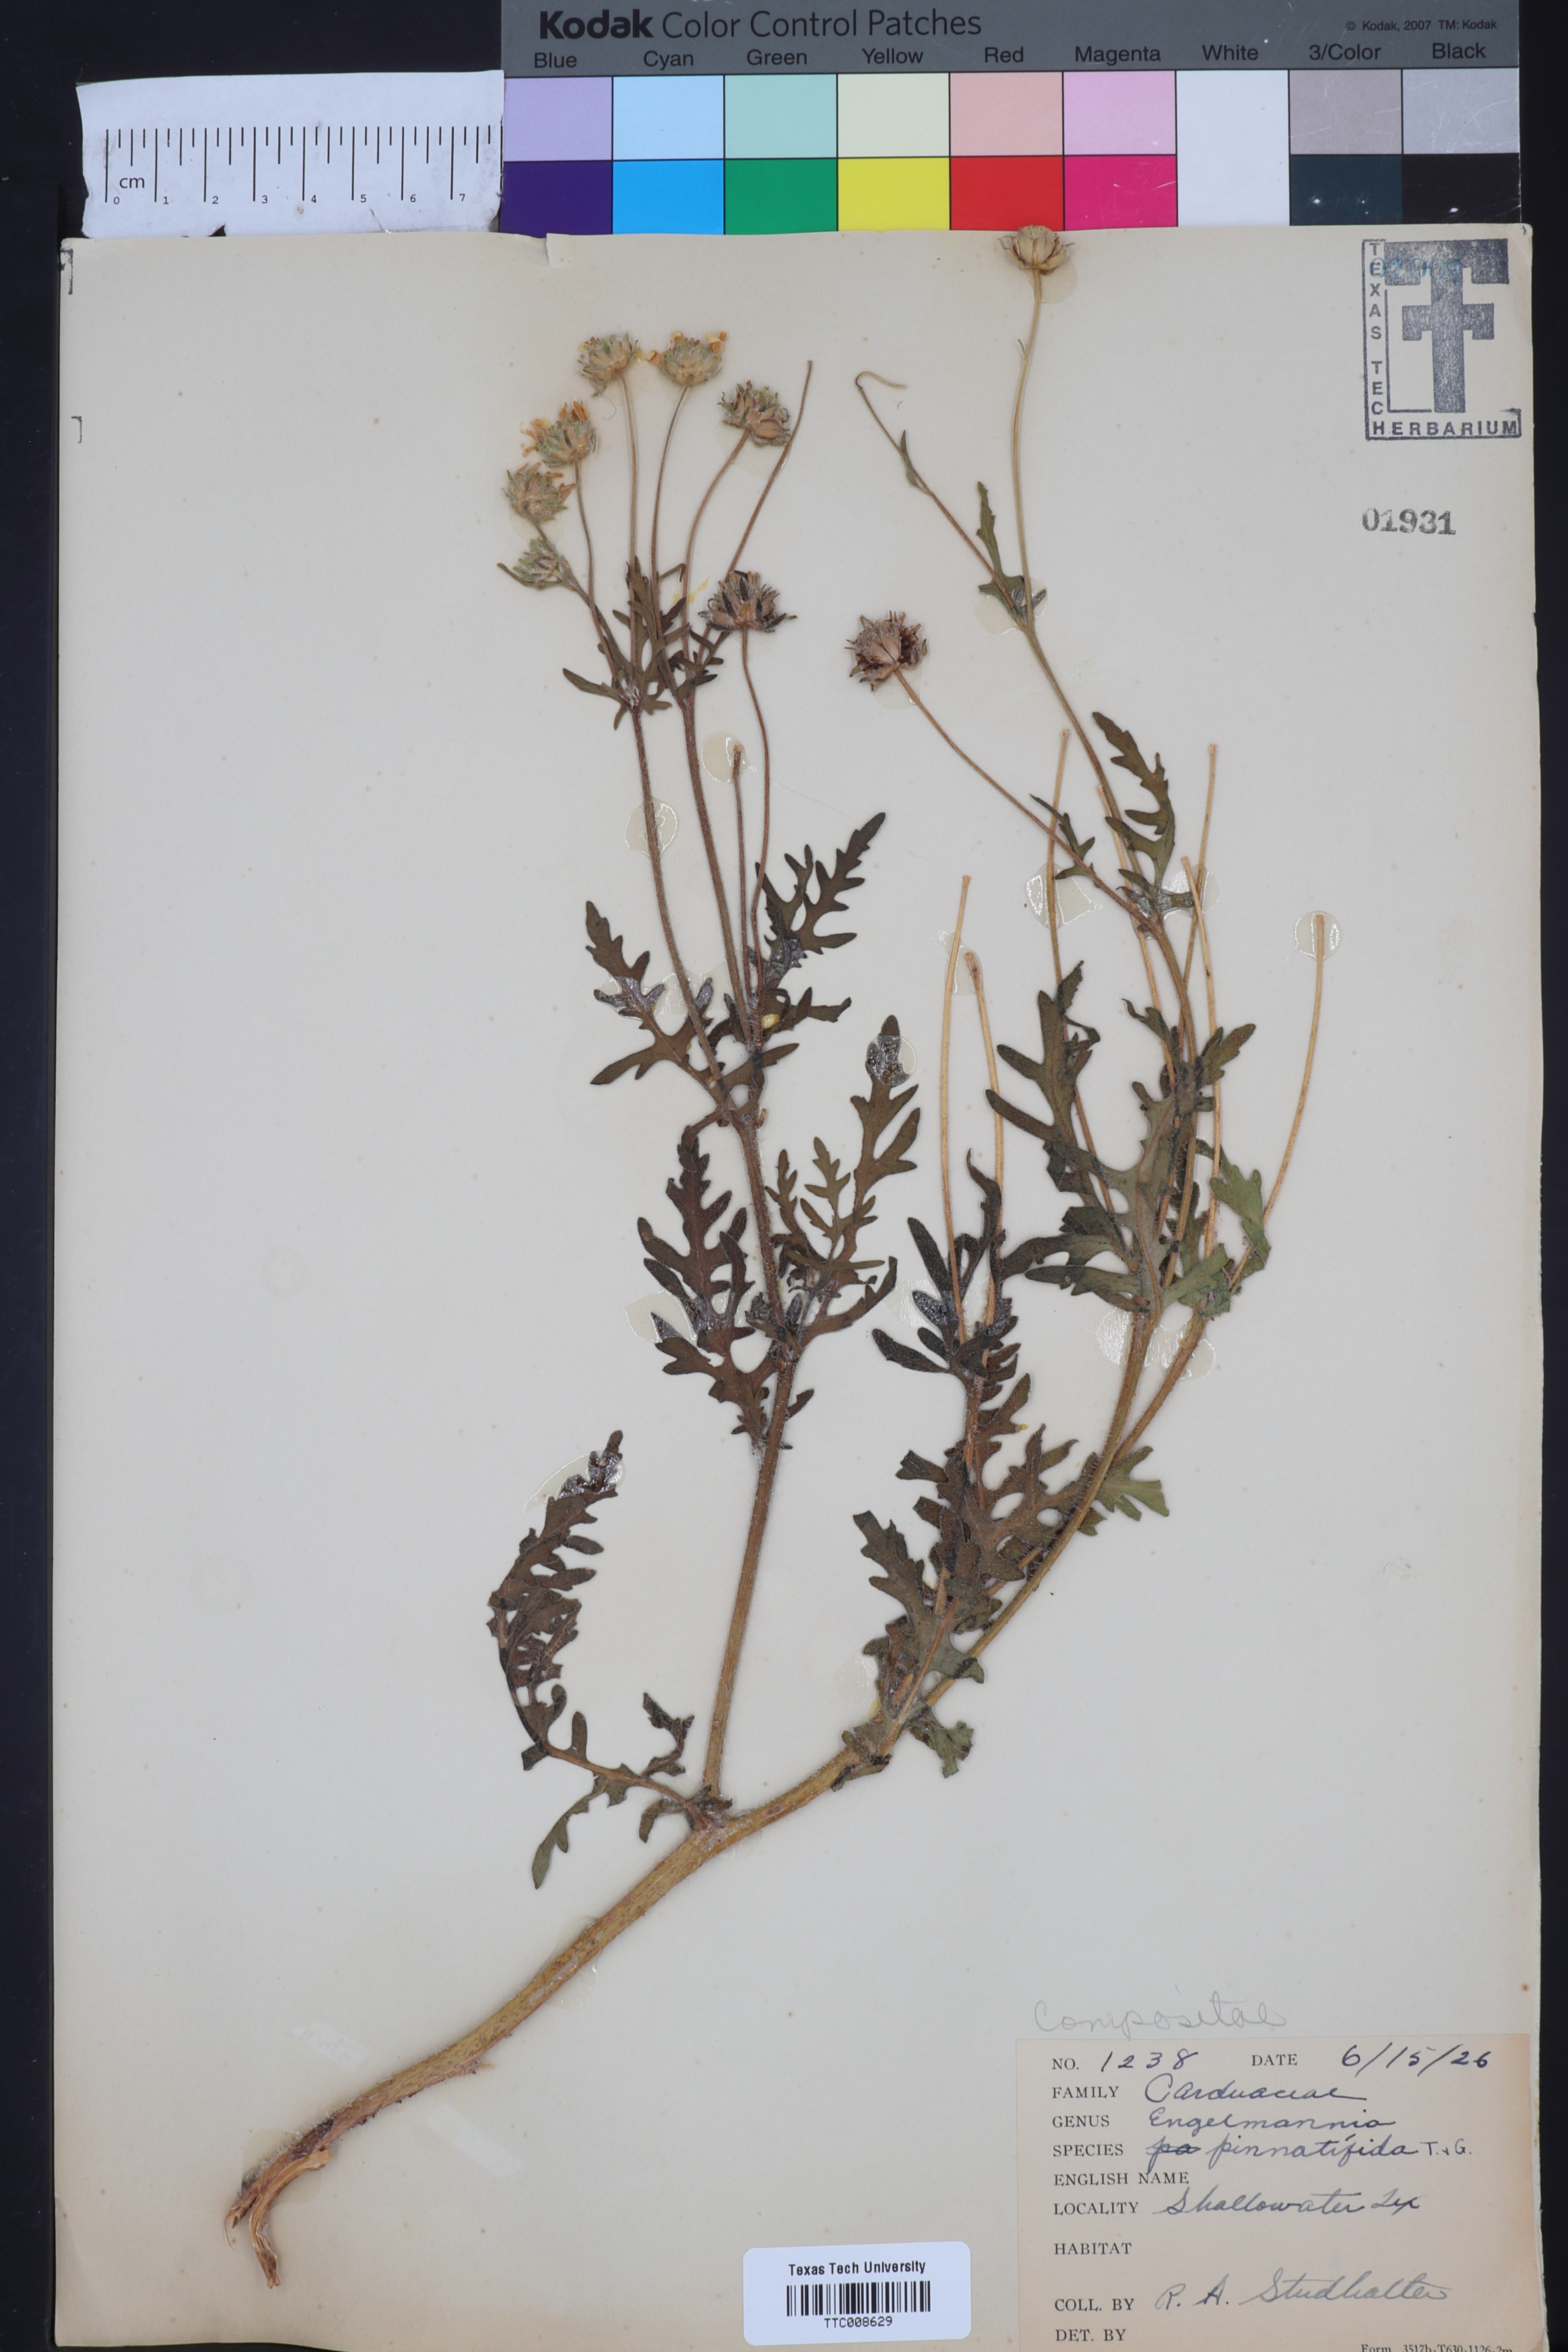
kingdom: Plantae
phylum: Tracheophyta
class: Magnoliopsida
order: Asterales
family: Asteraceae
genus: Engelmannia
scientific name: Engelmannia peristenia
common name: Engelmann's daisy
